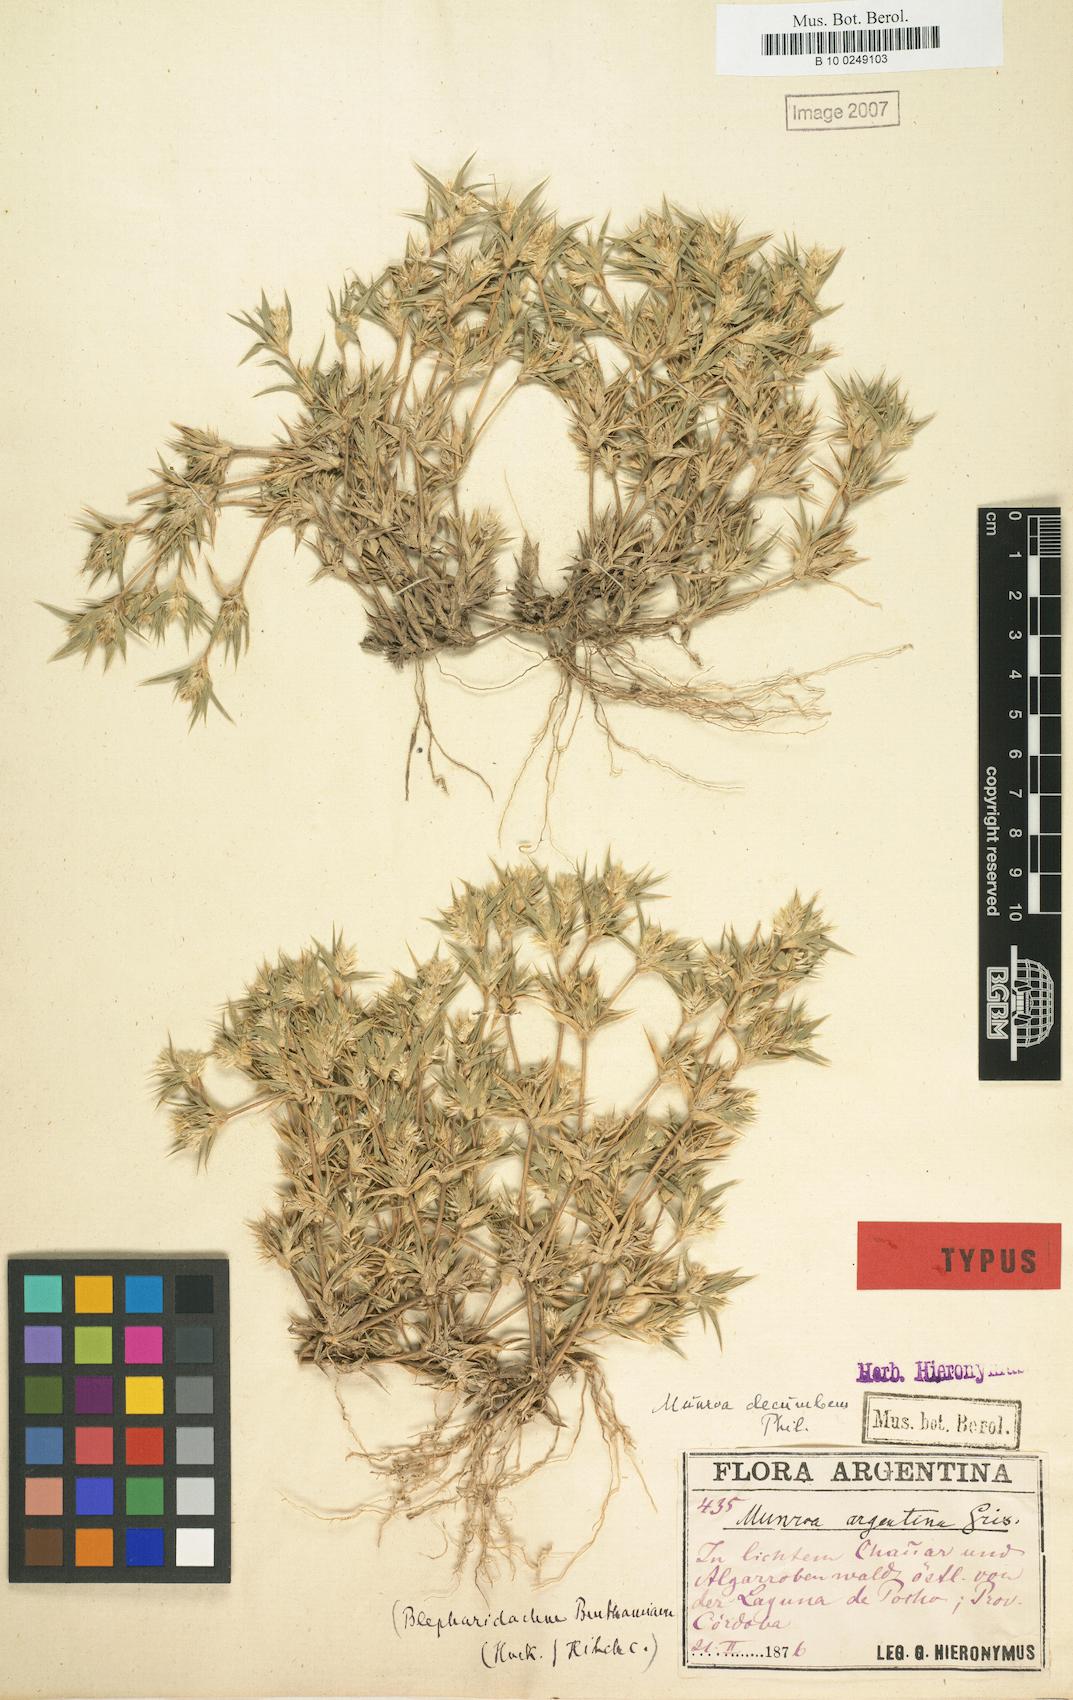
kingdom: Plantae
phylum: Tracheophyta
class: Liliopsida
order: Poales
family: Poaceae
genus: Munroa
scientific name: Munroa argentina
